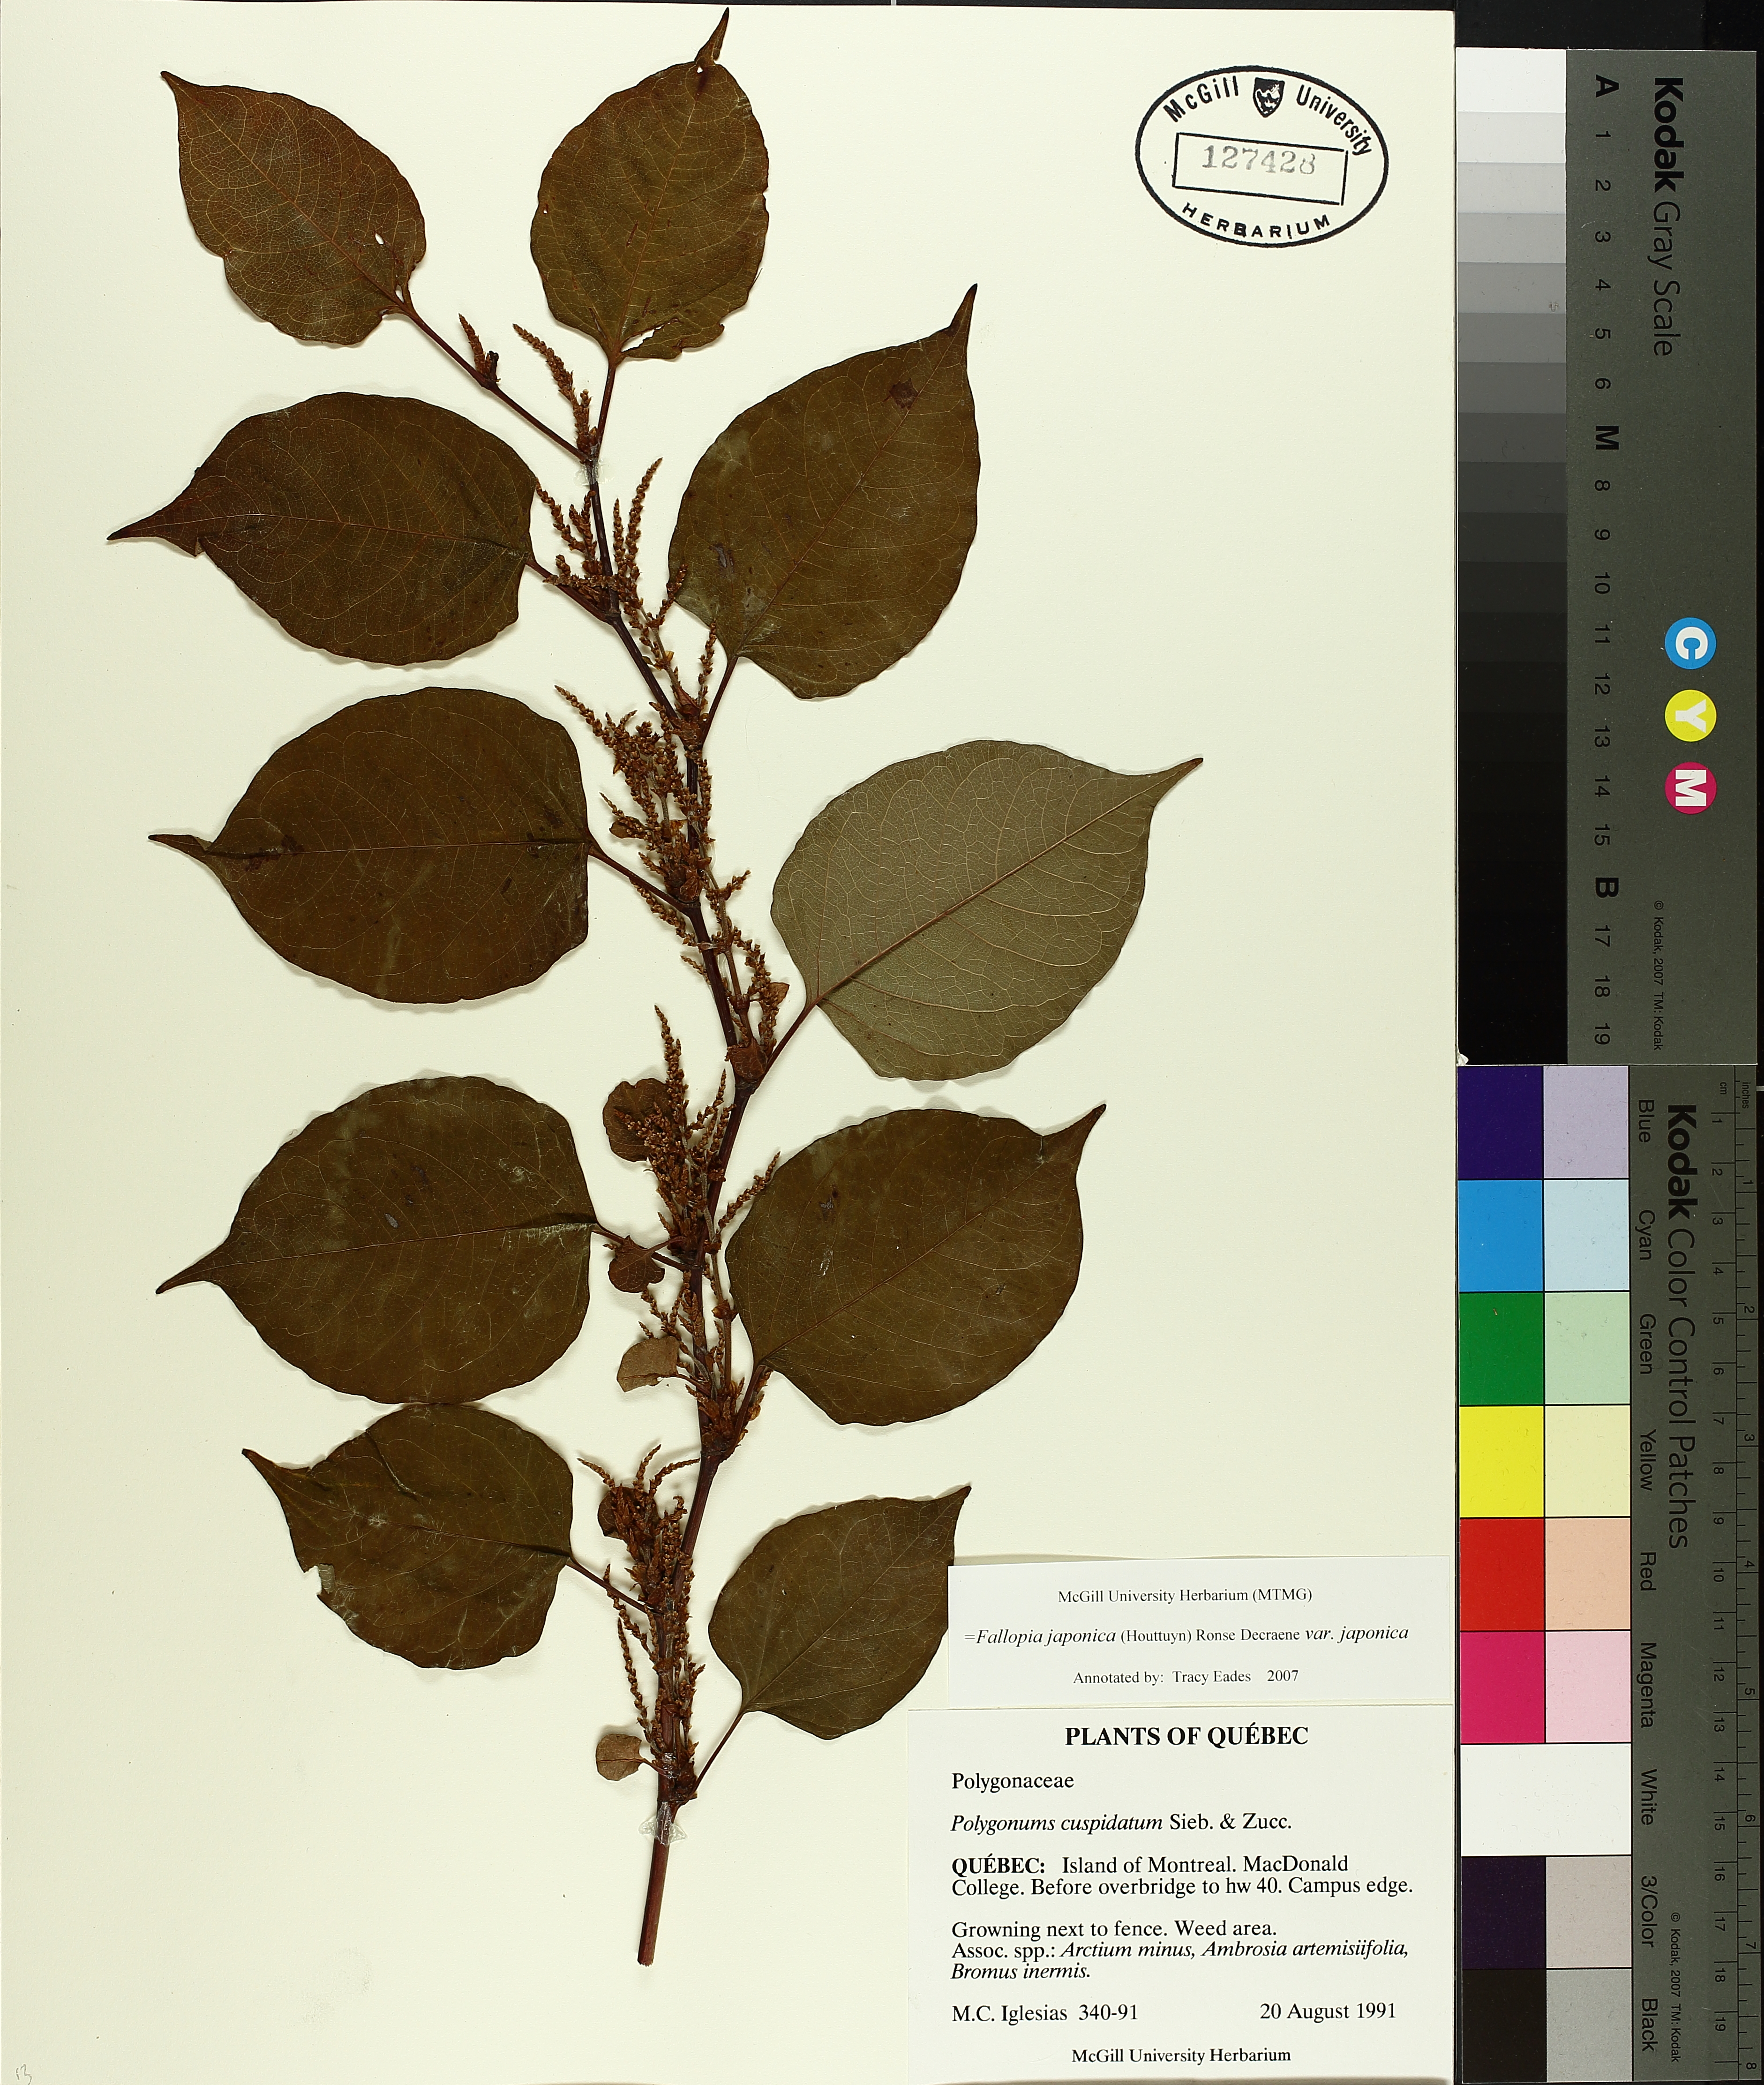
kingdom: Plantae
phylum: Tracheophyta
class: Magnoliopsida
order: Caryophyllales
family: Polygonaceae
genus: Reynoutria
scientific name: Reynoutria japonica
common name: Japanese knotweed
